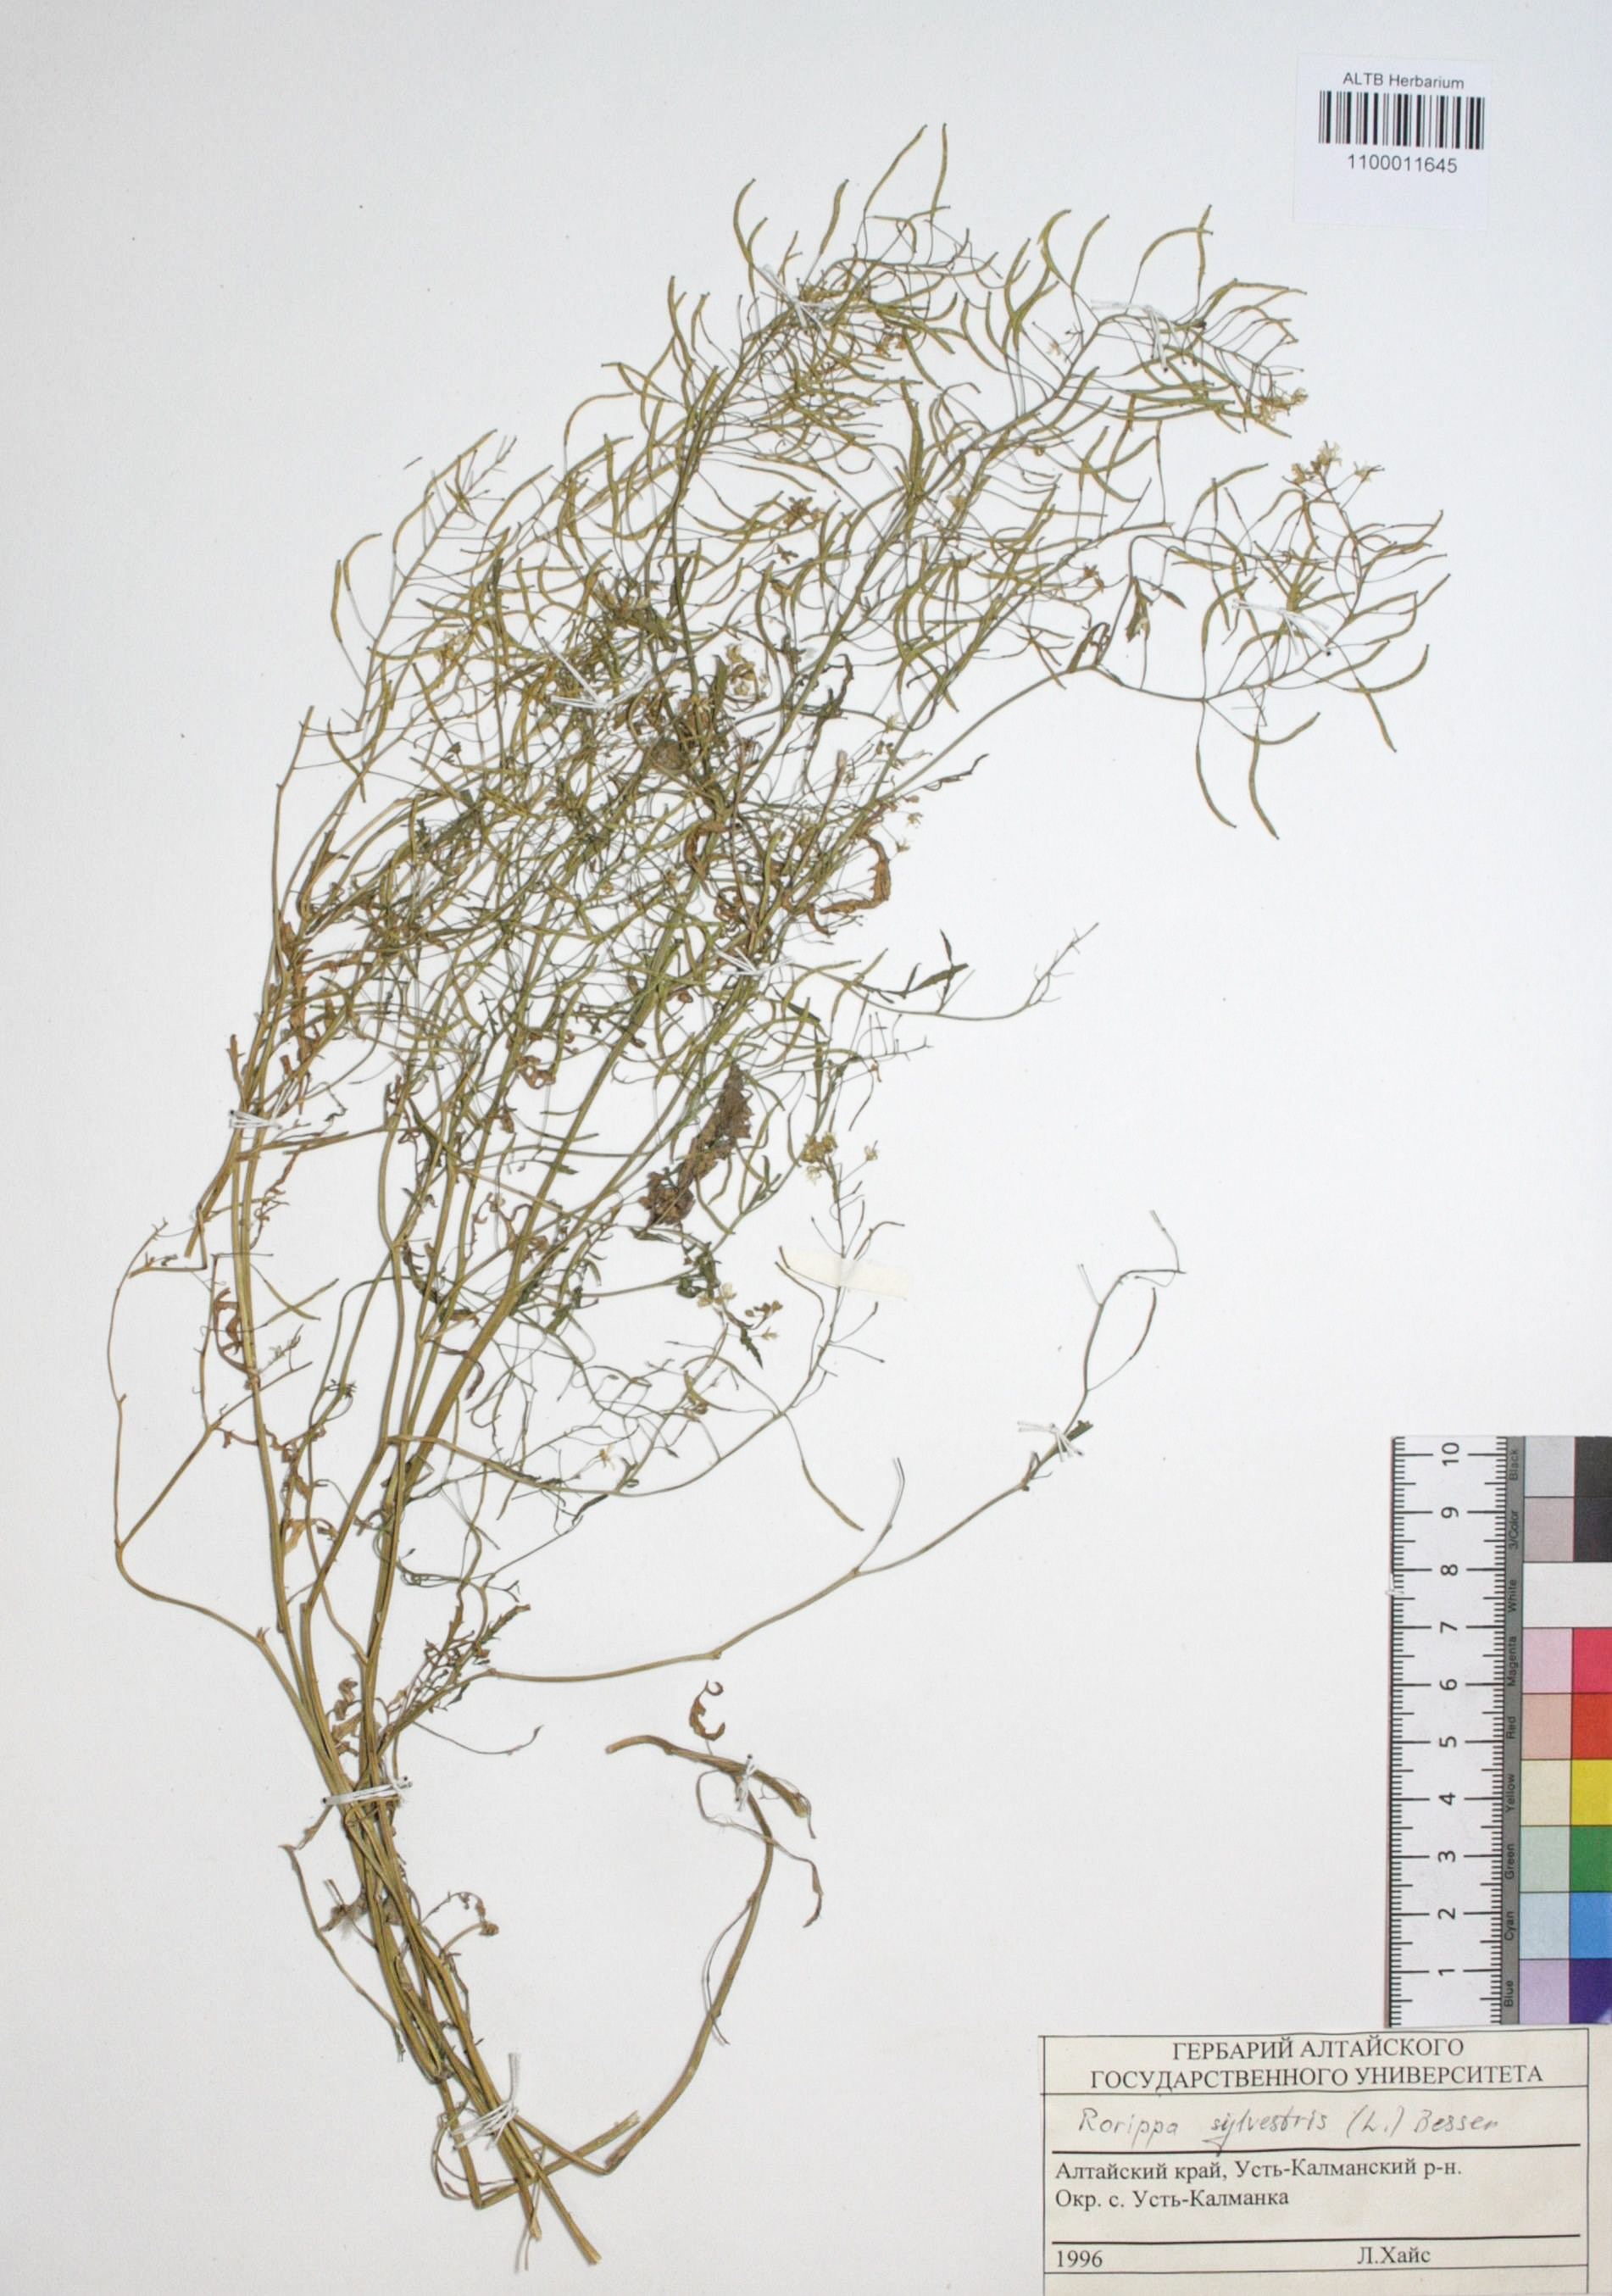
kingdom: Plantae
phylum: Tracheophyta
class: Magnoliopsida
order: Brassicales
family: Brassicaceae
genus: Rorippa
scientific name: Rorippa sylvestris
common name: Creeping yellowcress
